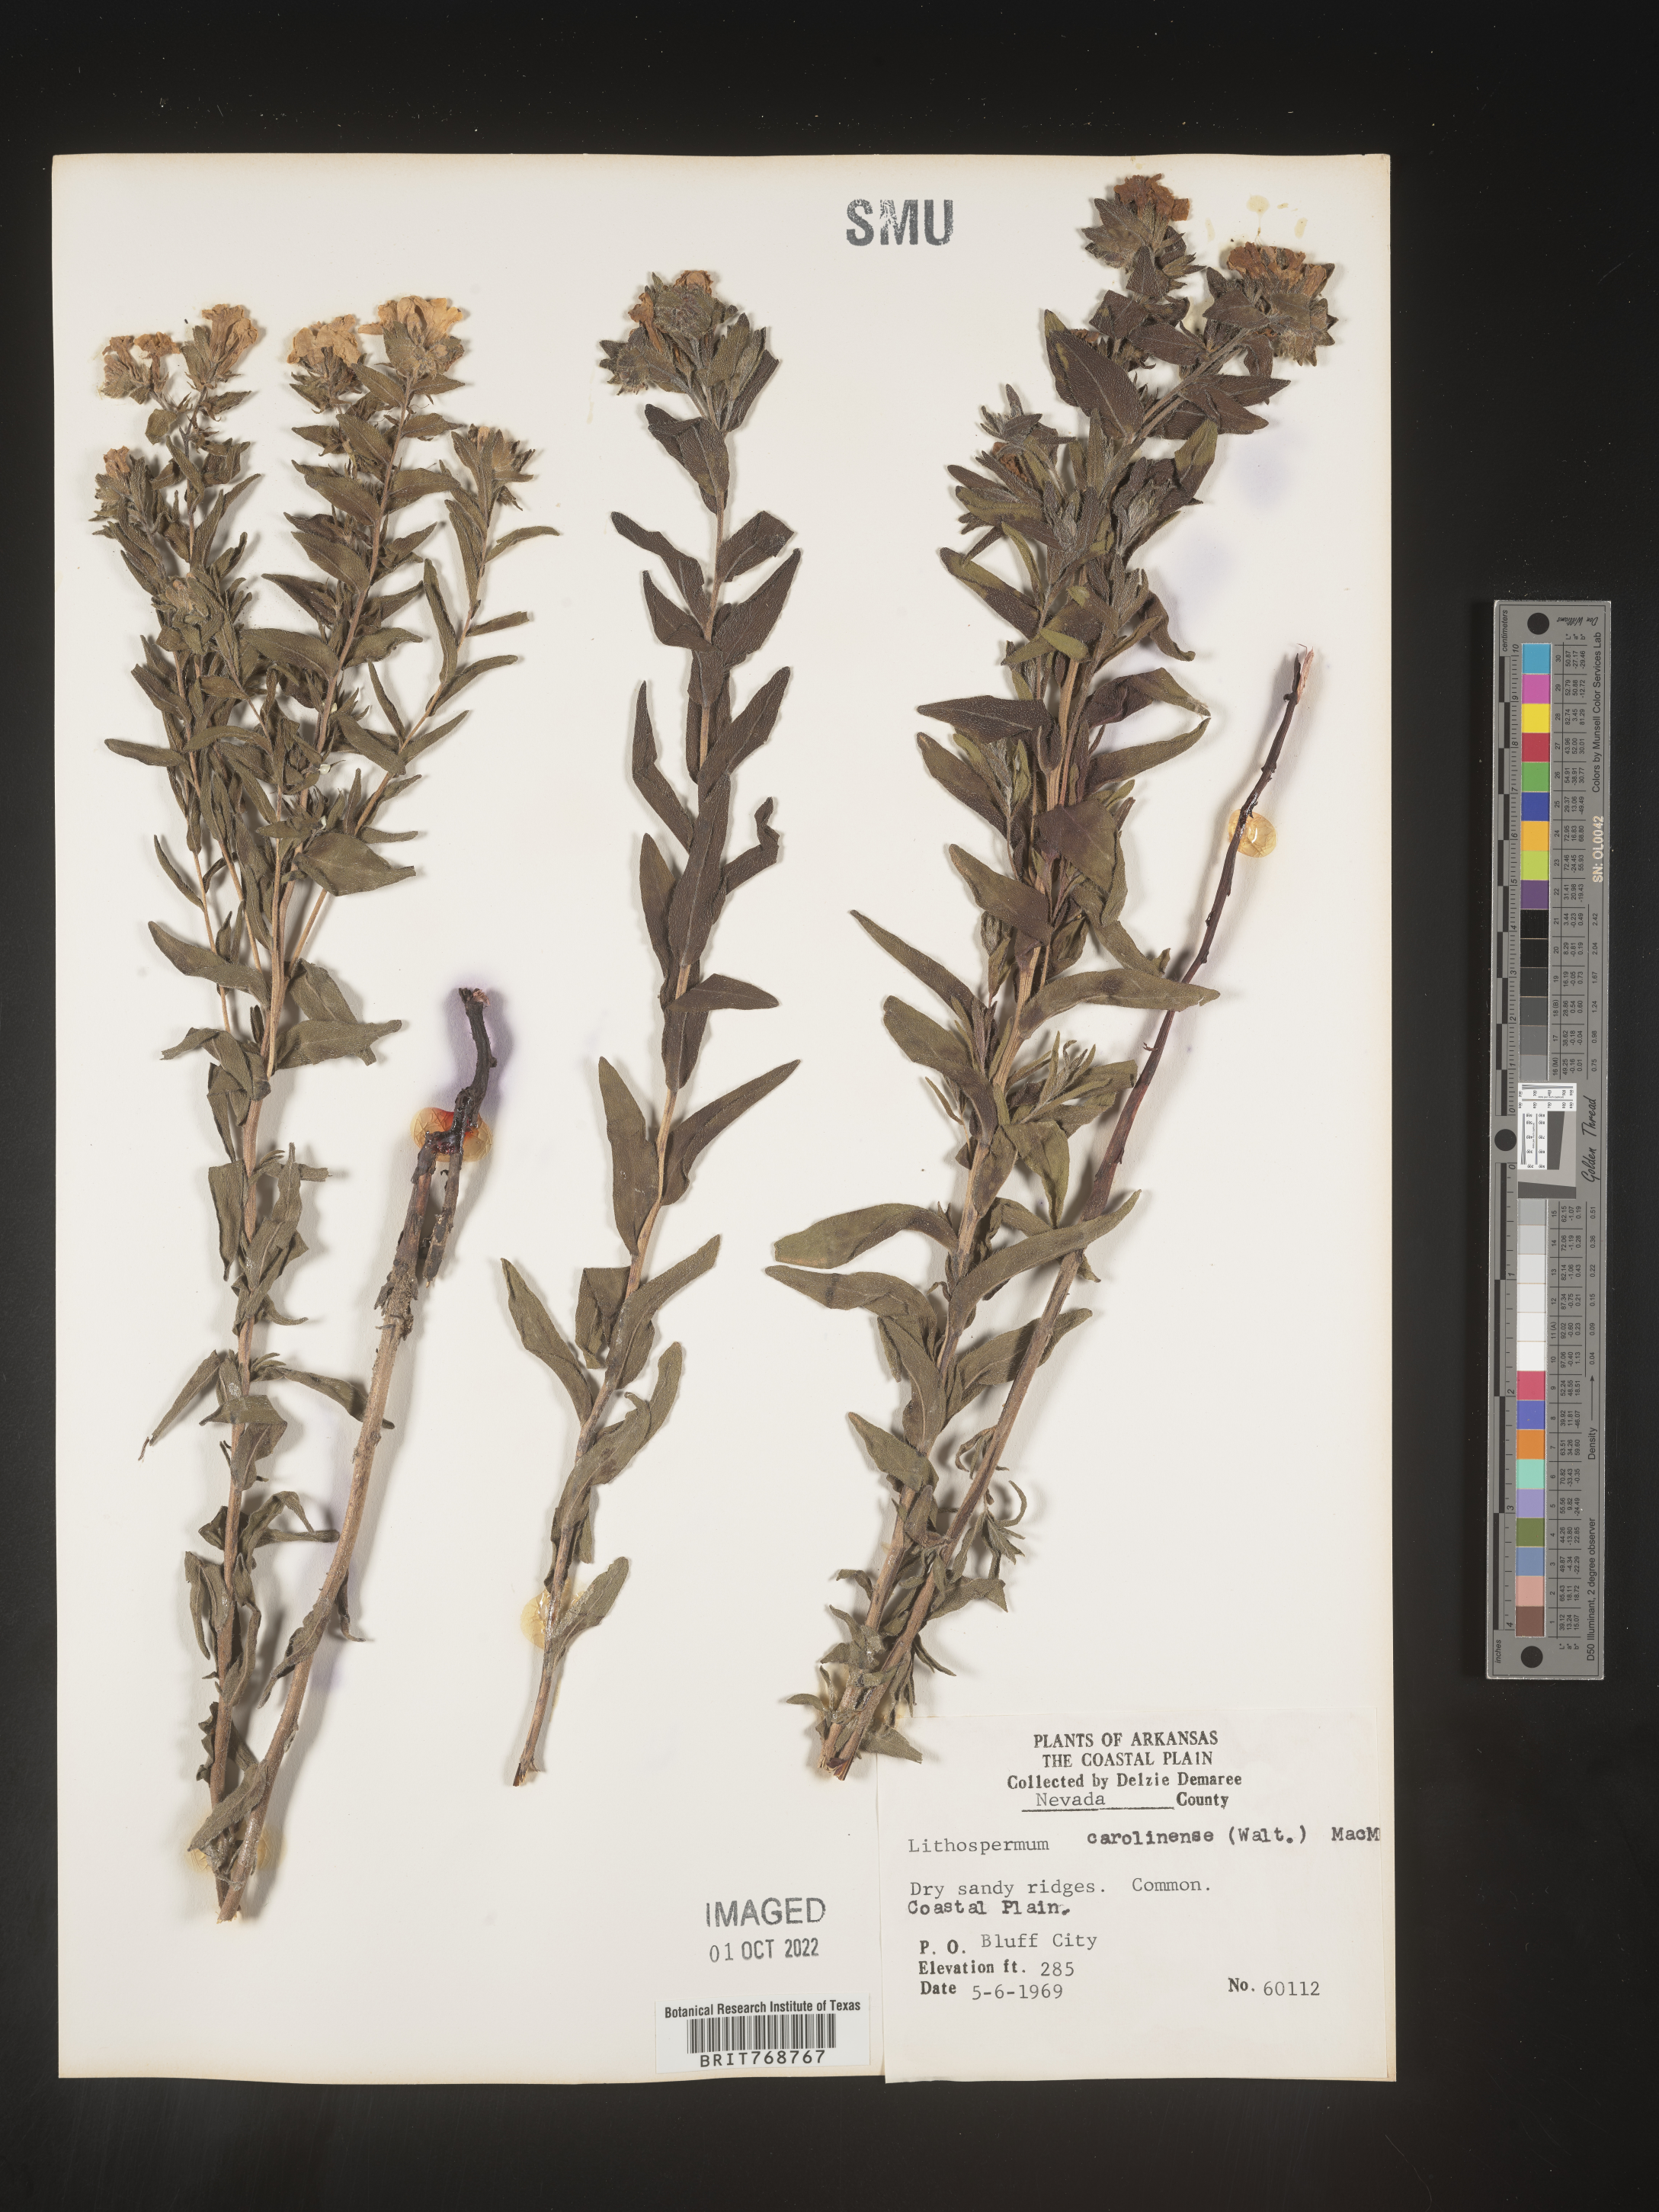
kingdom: Plantae
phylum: Tracheophyta
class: Magnoliopsida
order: Boraginales
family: Boraginaceae
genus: Lithospermum
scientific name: Lithospermum caroliniense
